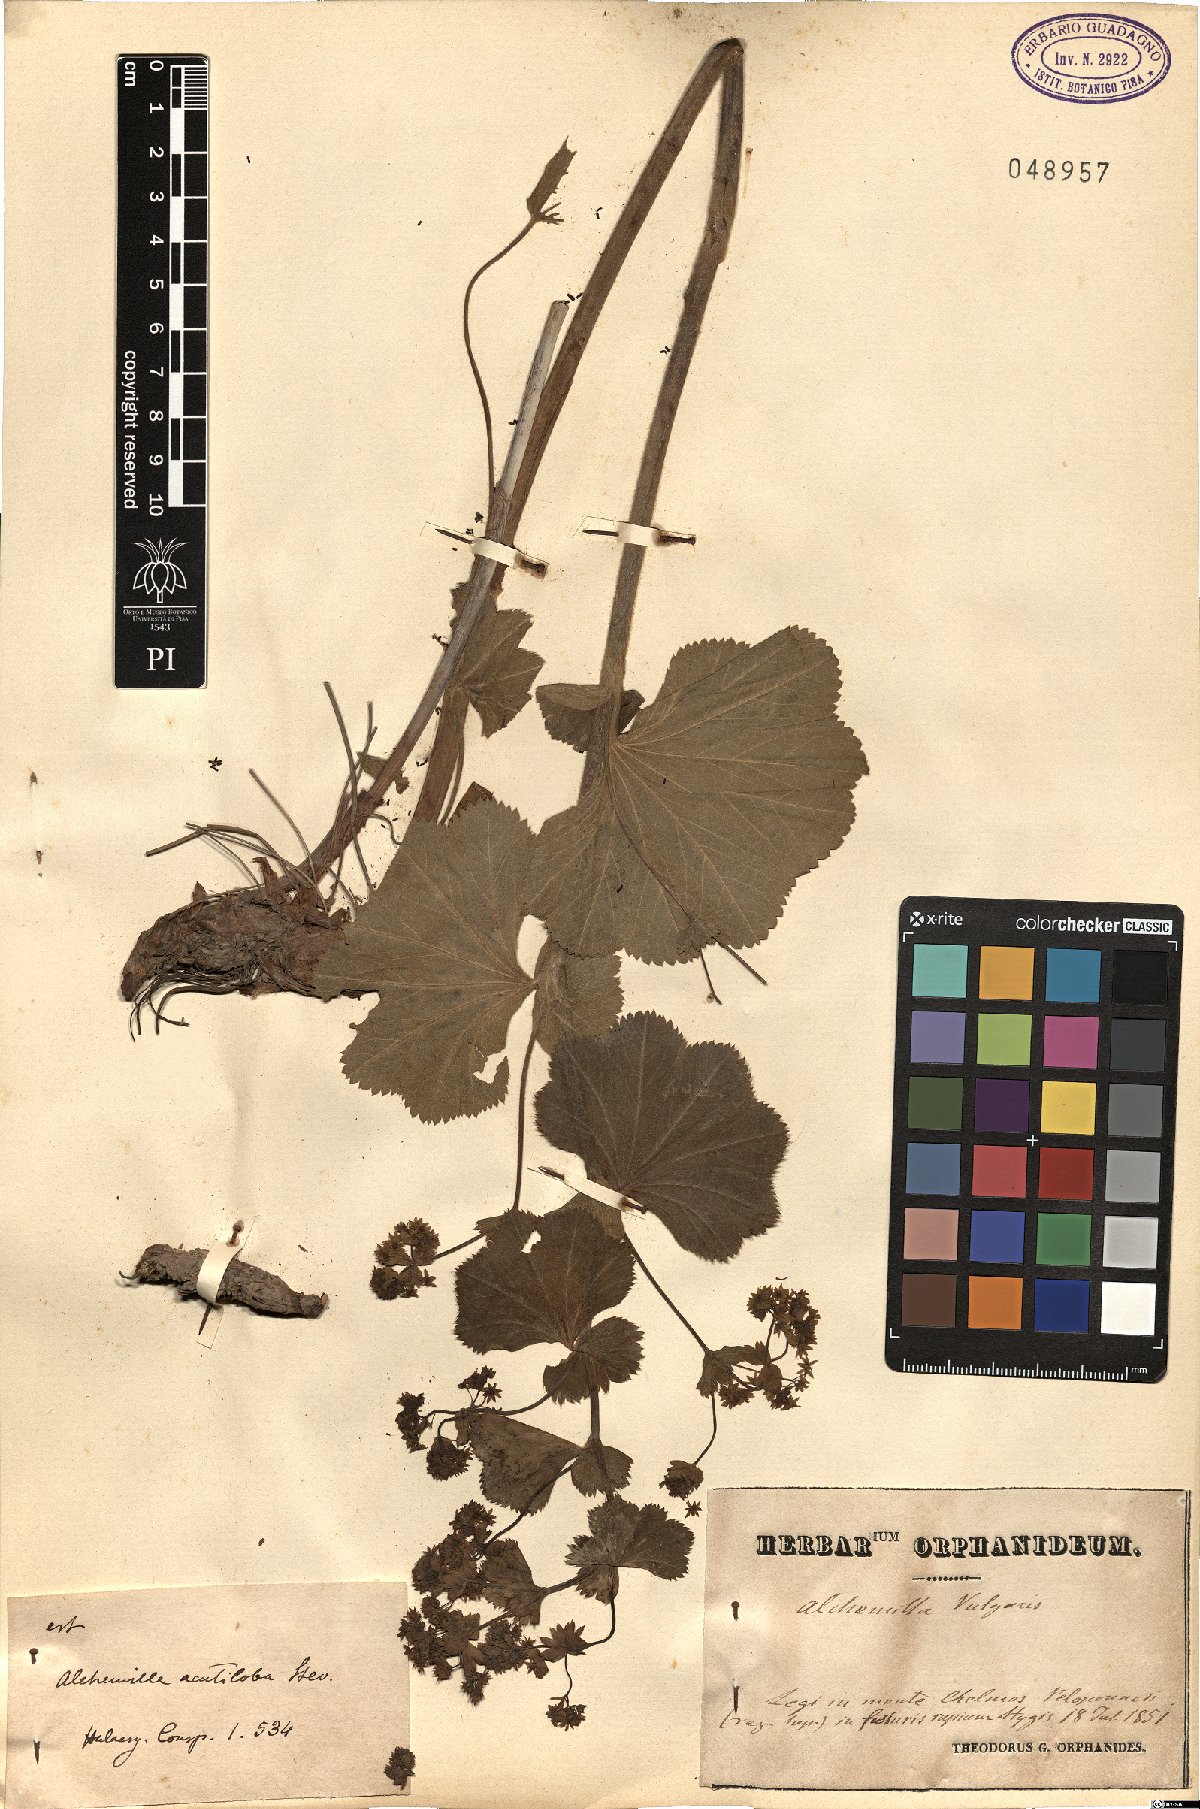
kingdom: Plantae
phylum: Tracheophyta
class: Magnoliopsida
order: Rosales
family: Rosaceae
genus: Alchemilla
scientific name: Alchemilla vulgaris
